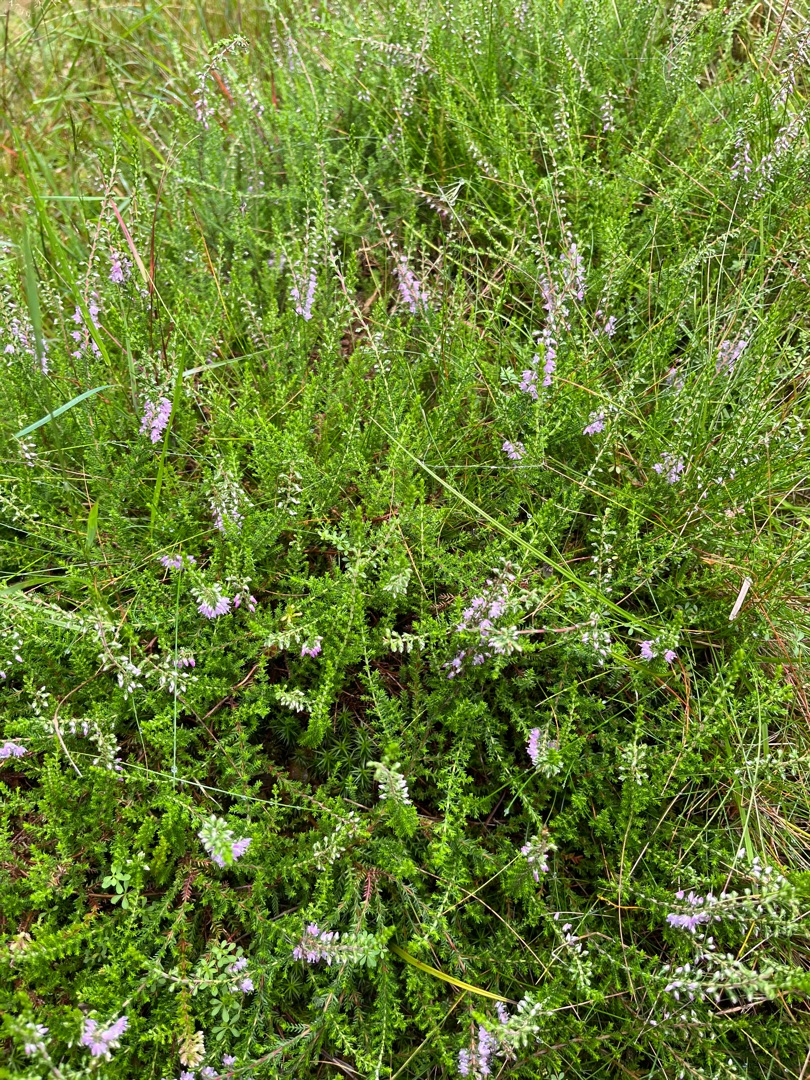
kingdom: Plantae
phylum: Tracheophyta
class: Magnoliopsida
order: Ericales
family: Ericaceae
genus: Calluna
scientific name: Calluna vulgaris
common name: Hedelyng
